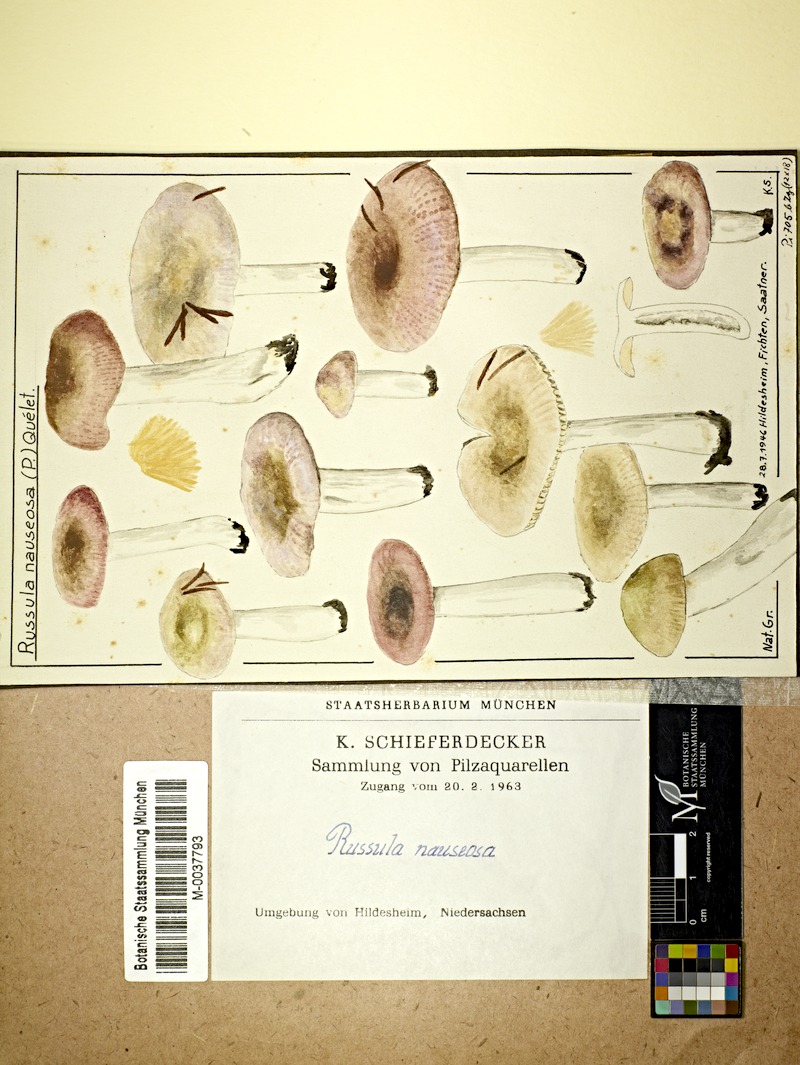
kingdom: Fungi
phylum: Basidiomycota
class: Agaricomycetes
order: Russulales
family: Russulaceae
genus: Russula
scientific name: Russula nauseosa
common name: Nauseous brittlegill
